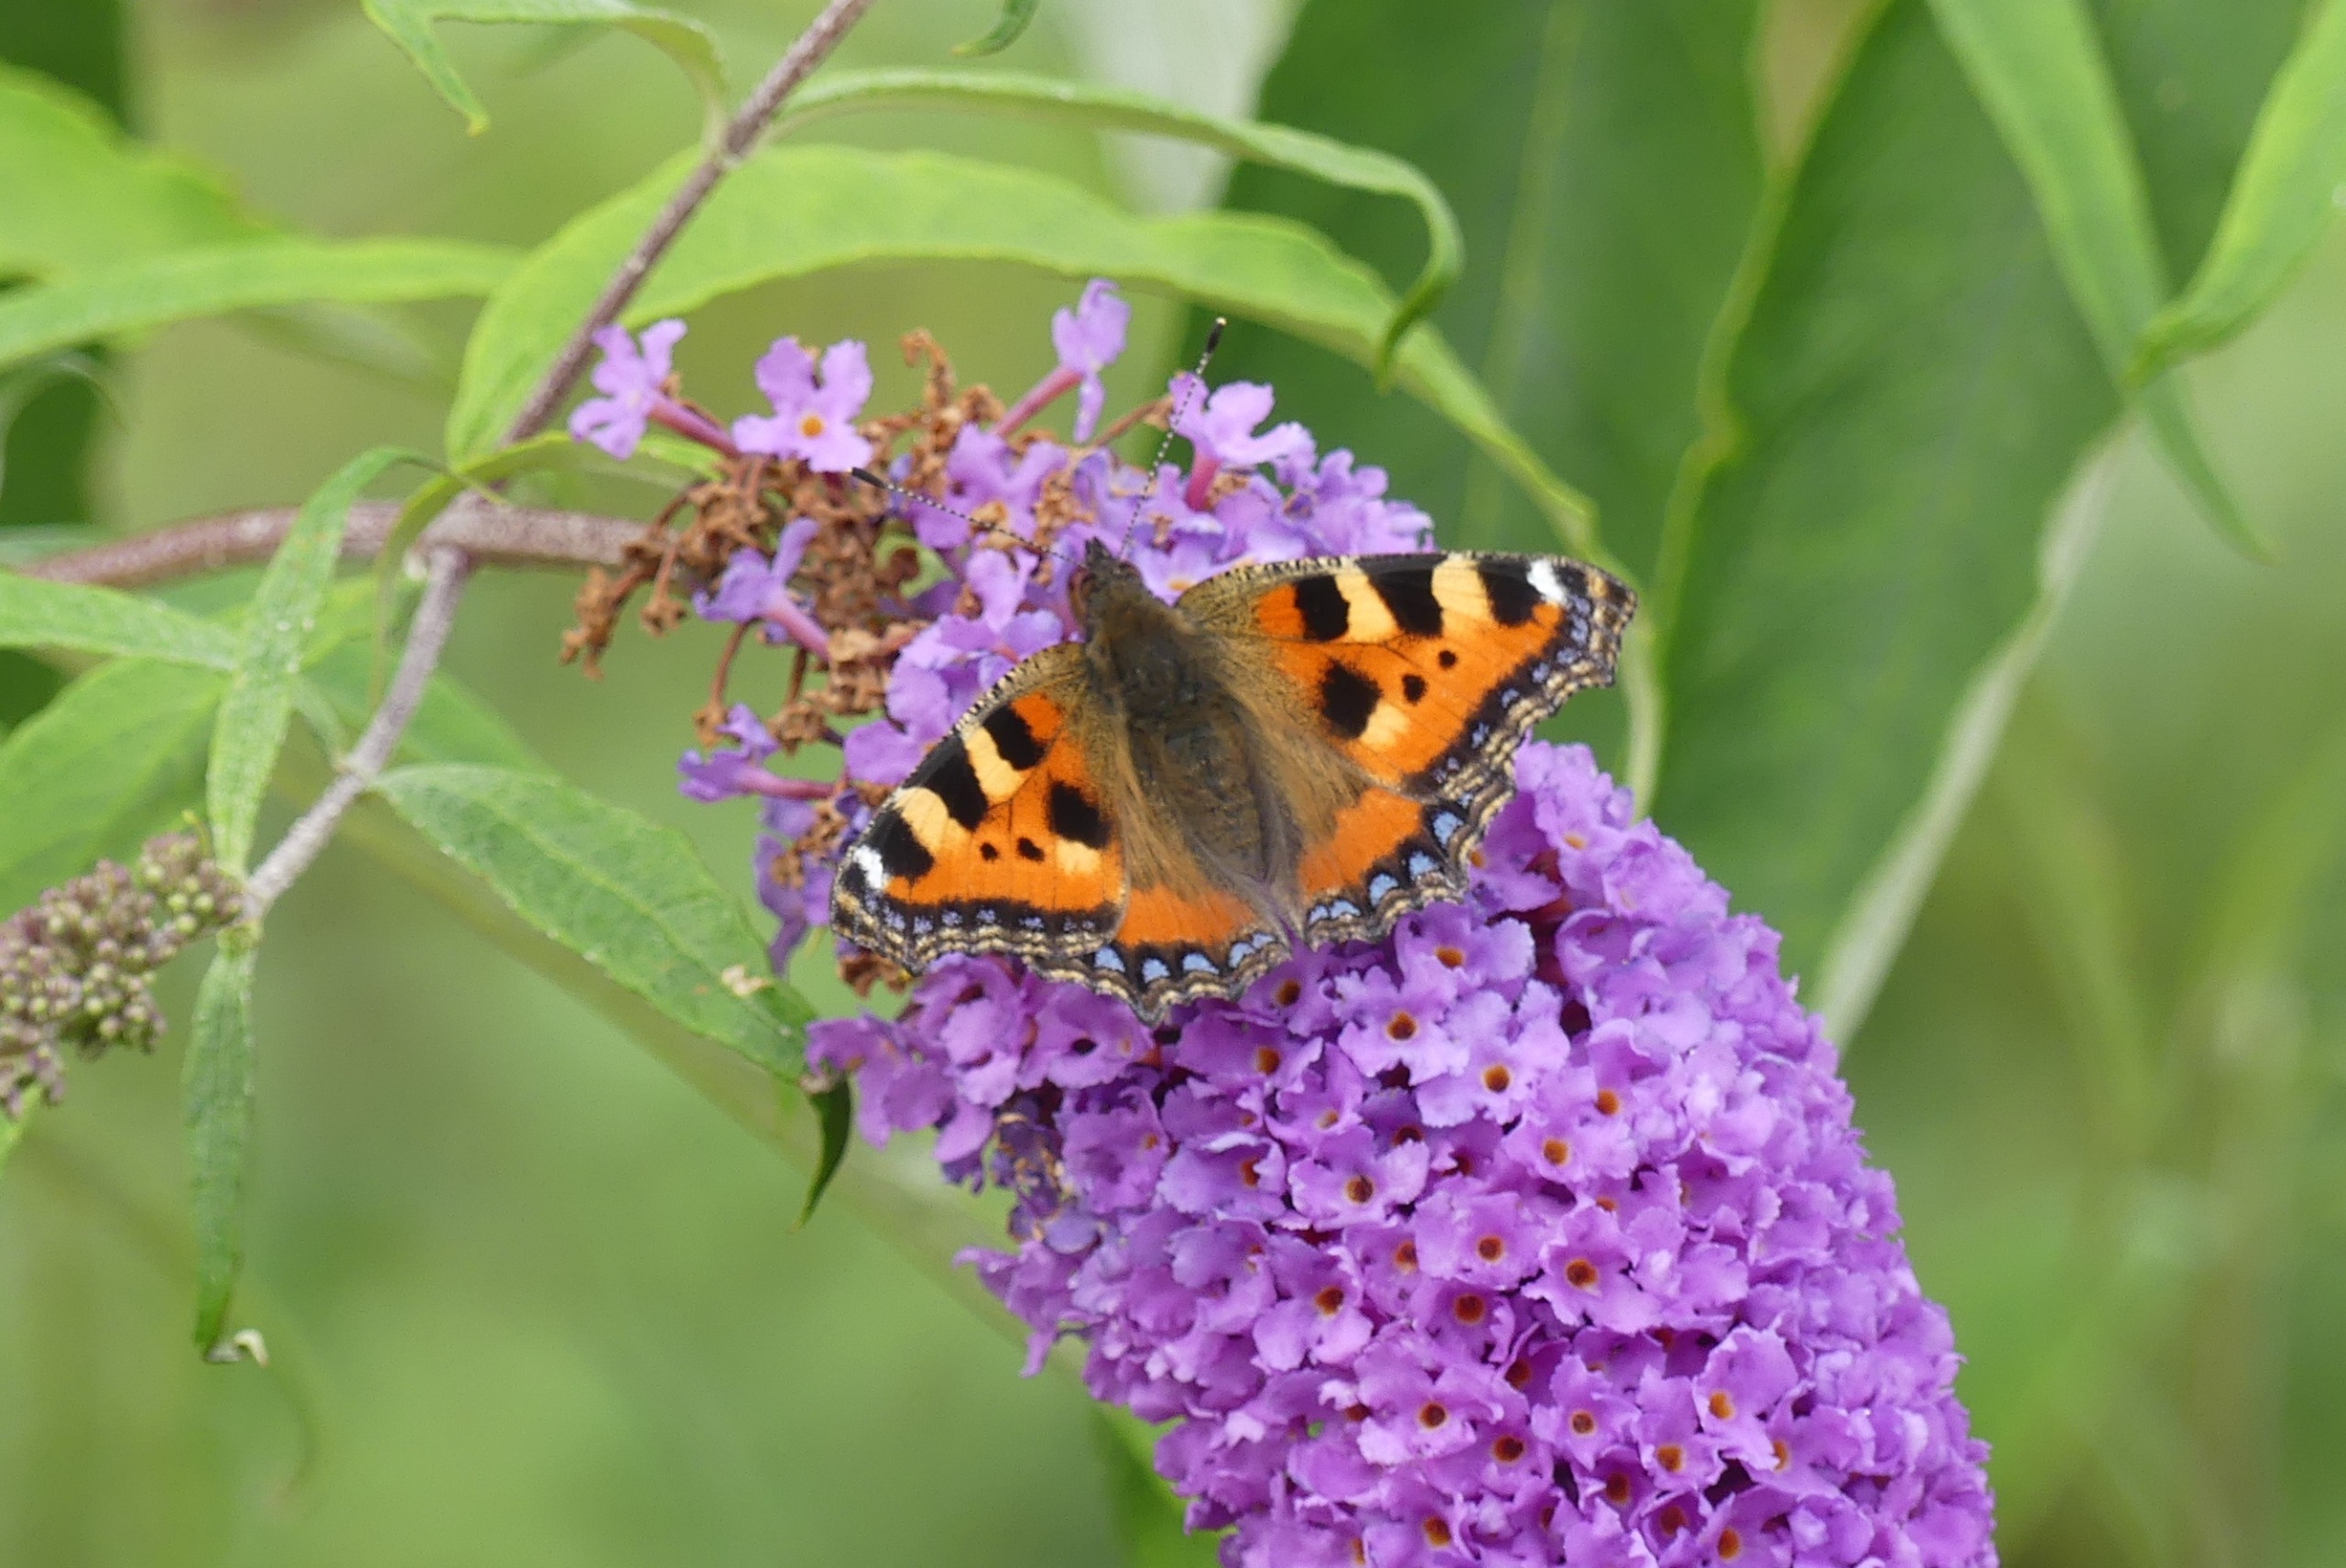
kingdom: Animalia
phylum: Arthropoda
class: Insecta
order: Lepidoptera
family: Nymphalidae
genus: Aglais
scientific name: Aglais urticae
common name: Nældens takvinge
